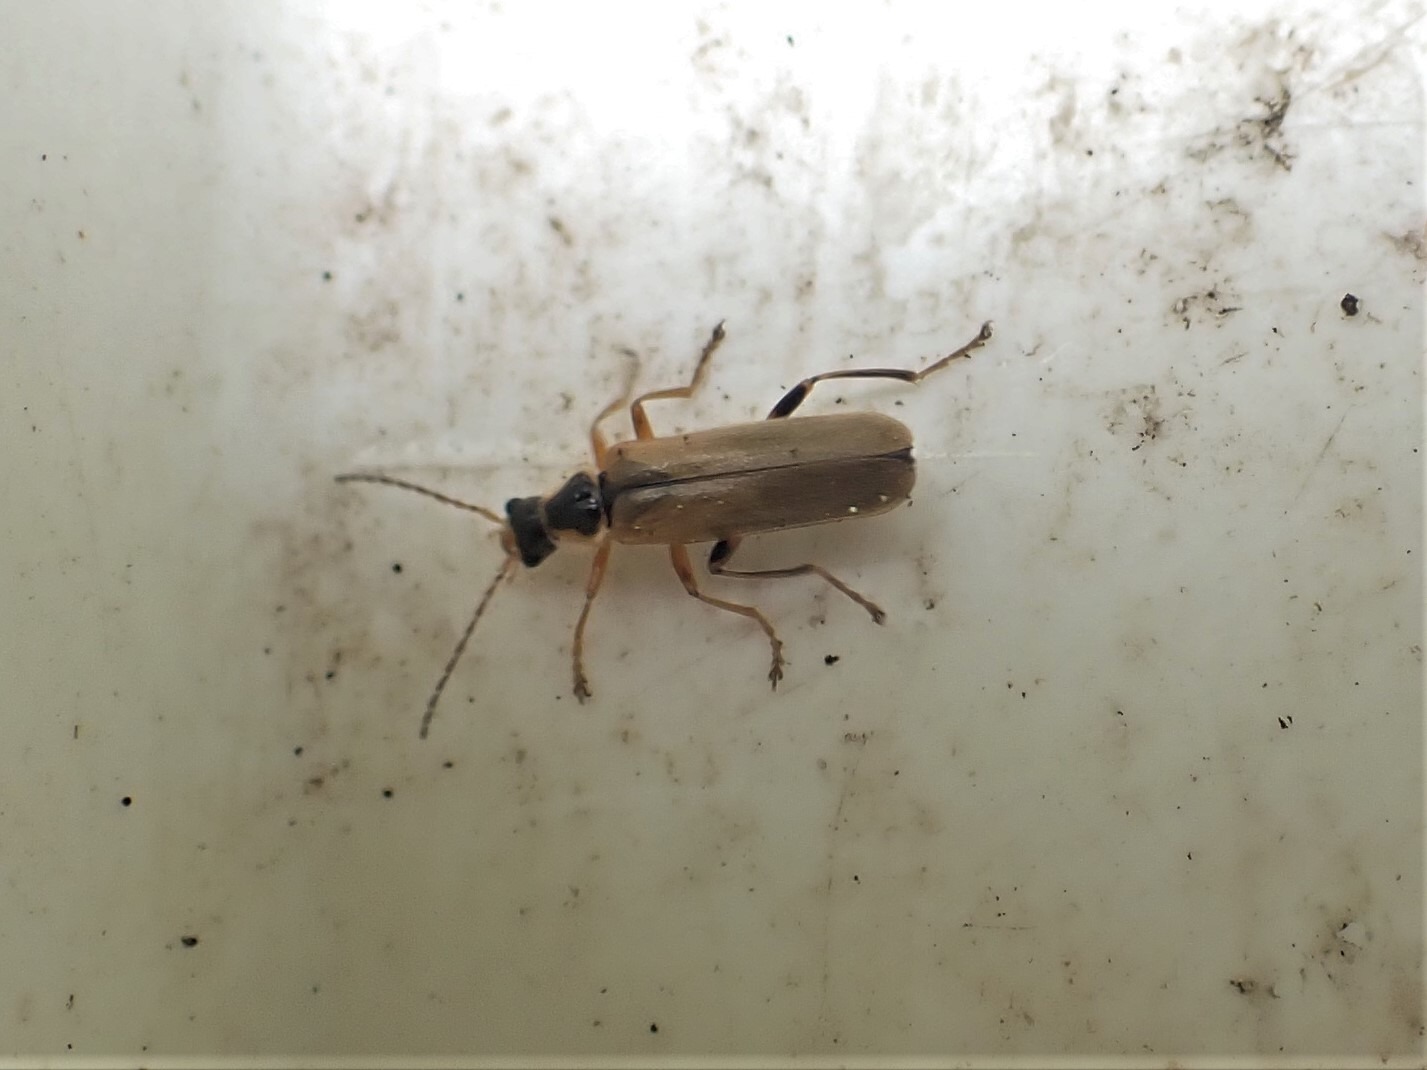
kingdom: Animalia
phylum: Arthropoda
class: Insecta
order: Coleoptera
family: Cantharidae
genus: Cantharis
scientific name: Cantharis decipiens
